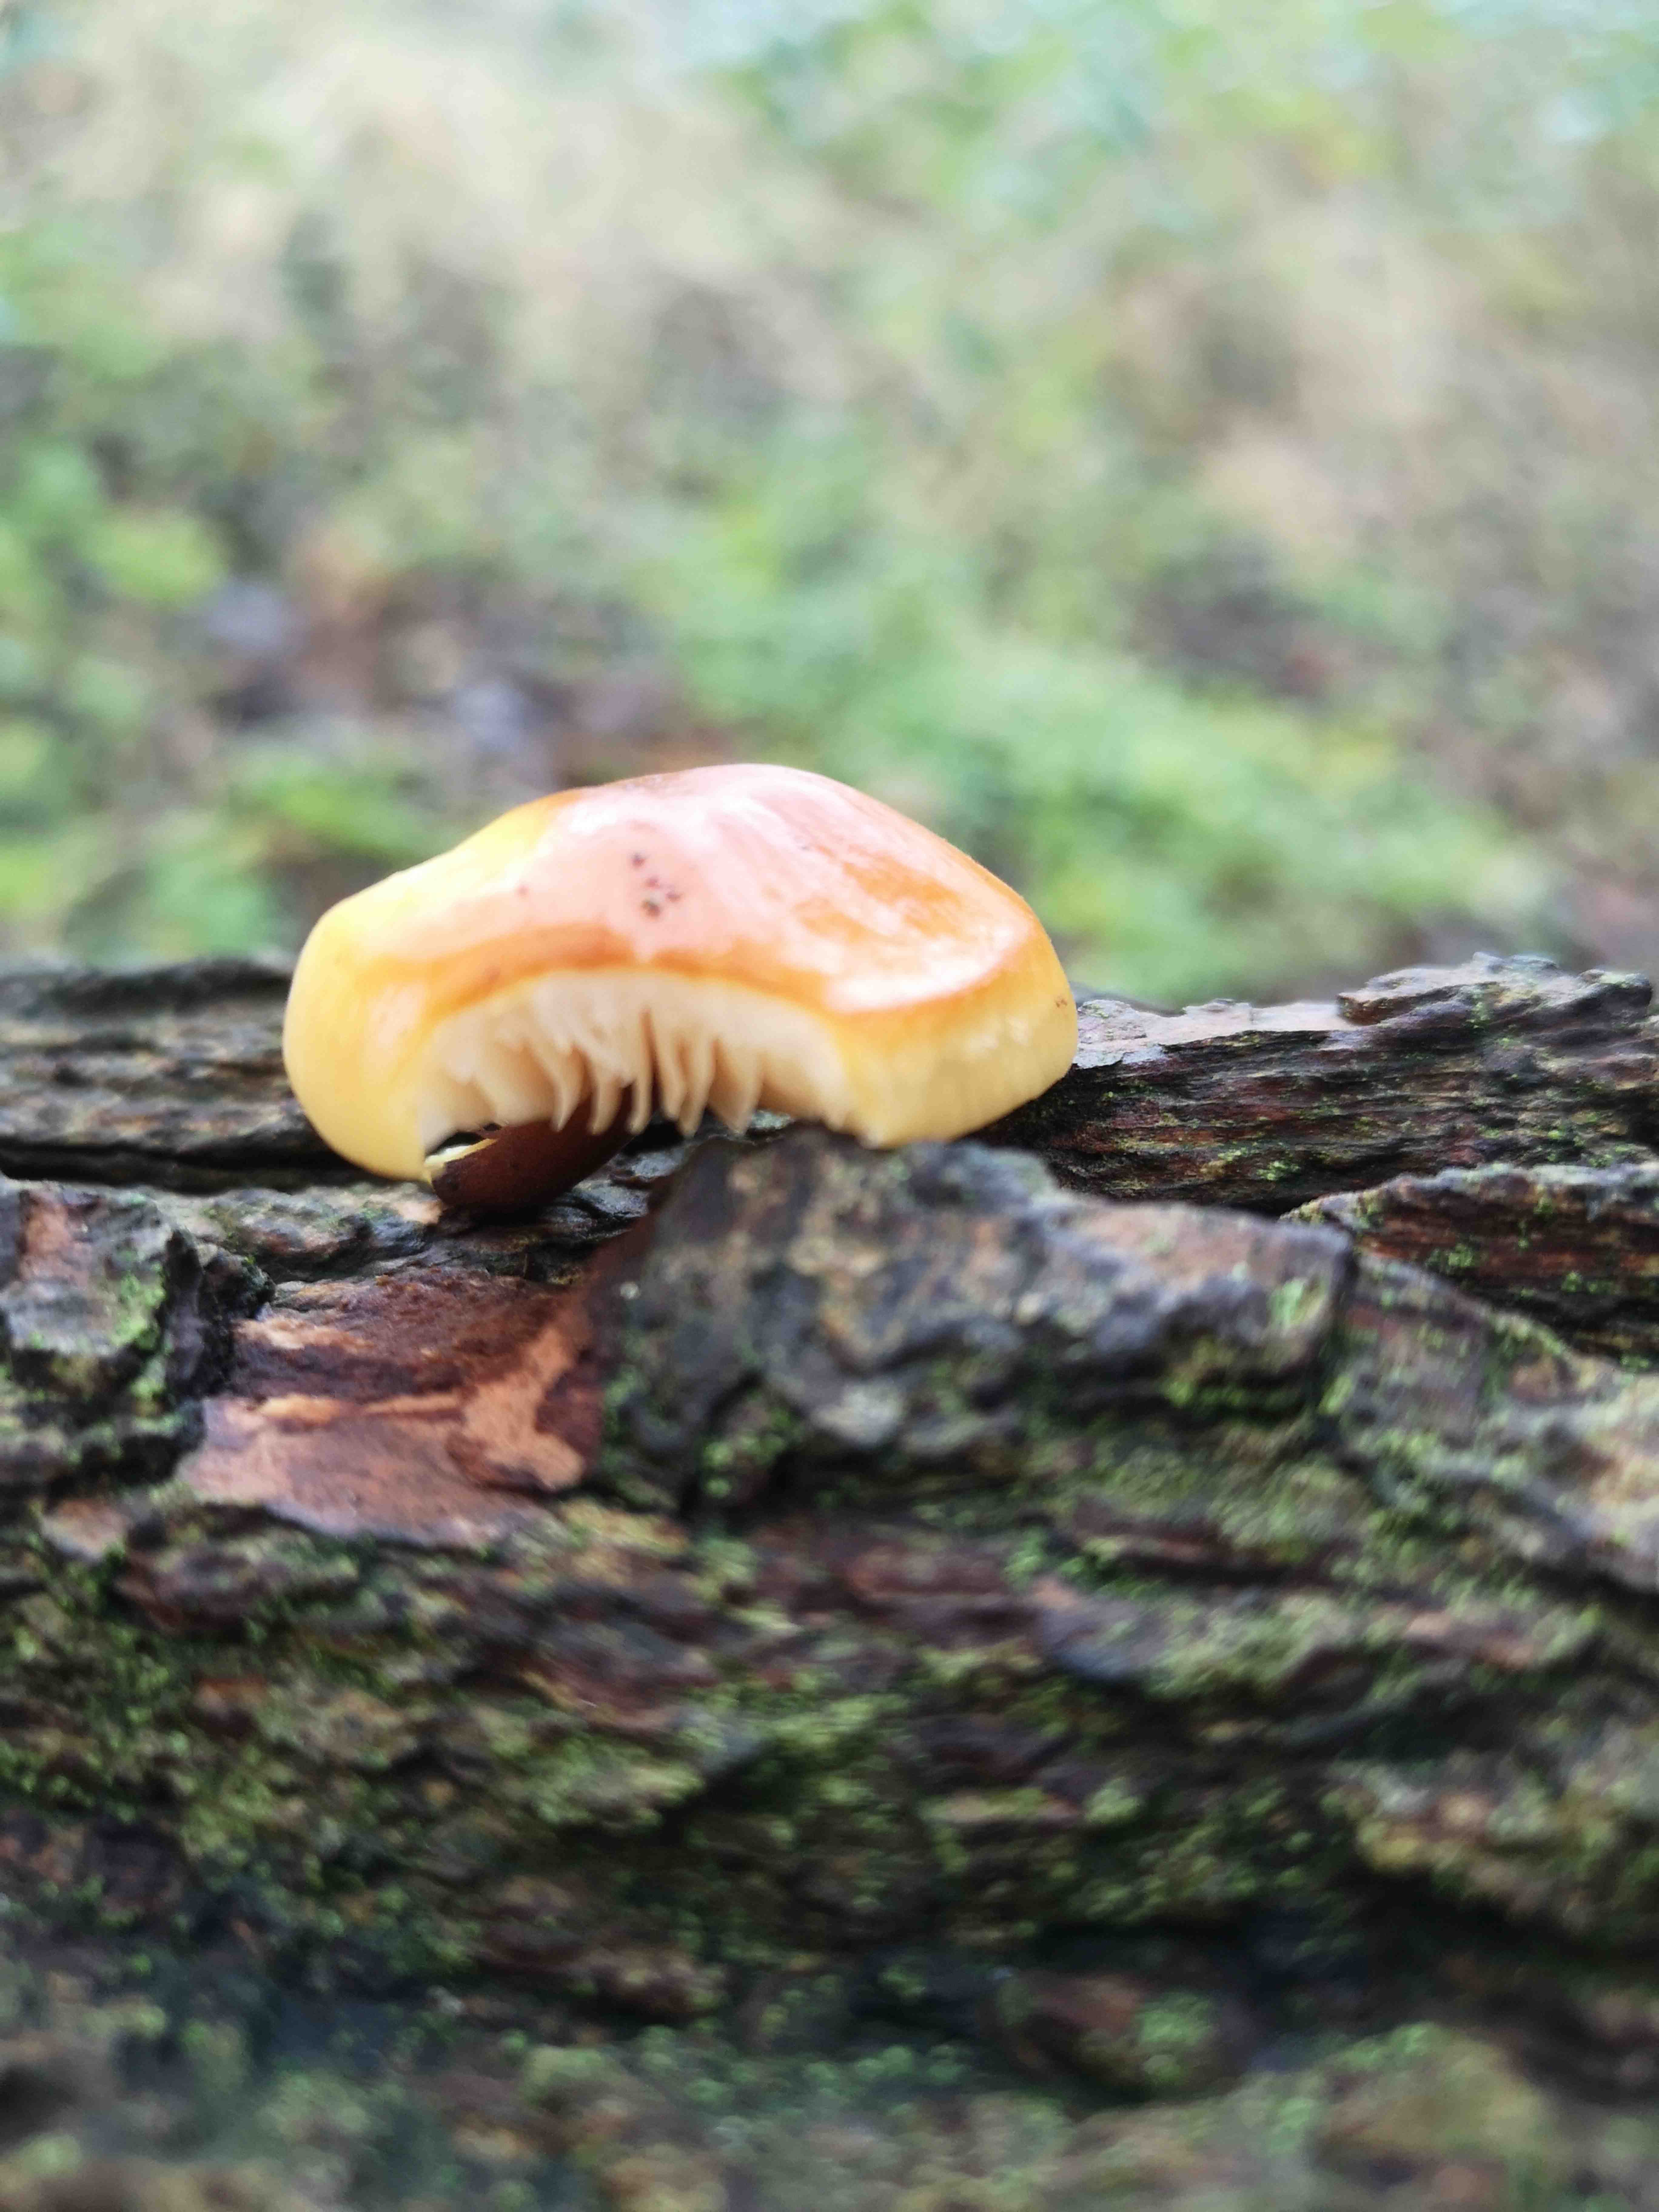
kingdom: Fungi
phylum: Basidiomycota
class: Agaricomycetes
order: Agaricales
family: Physalacriaceae
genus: Flammulina
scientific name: Flammulina
